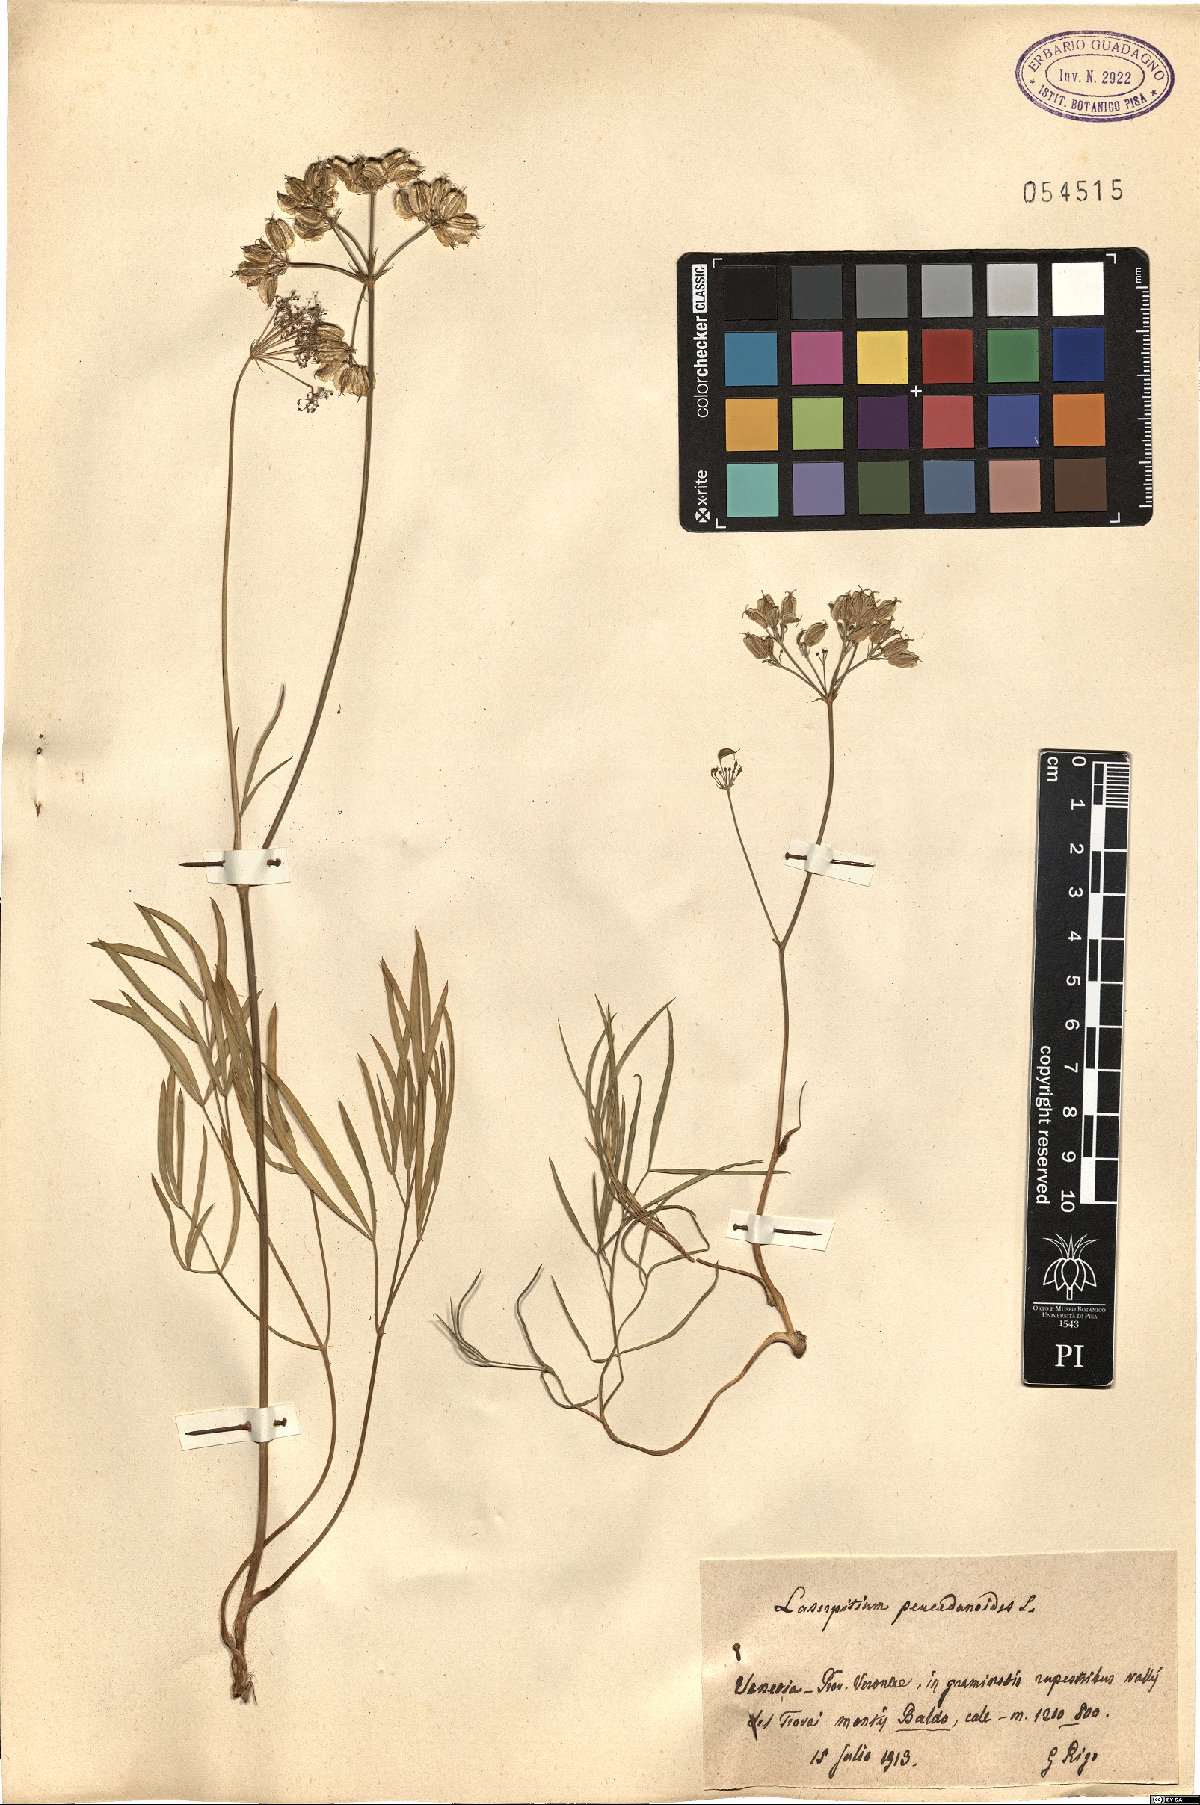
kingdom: Plantae
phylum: Tracheophyta
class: Magnoliopsida
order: Apiales
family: Apiaceae
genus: Laserpitium
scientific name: Laserpitium peucedanoides
